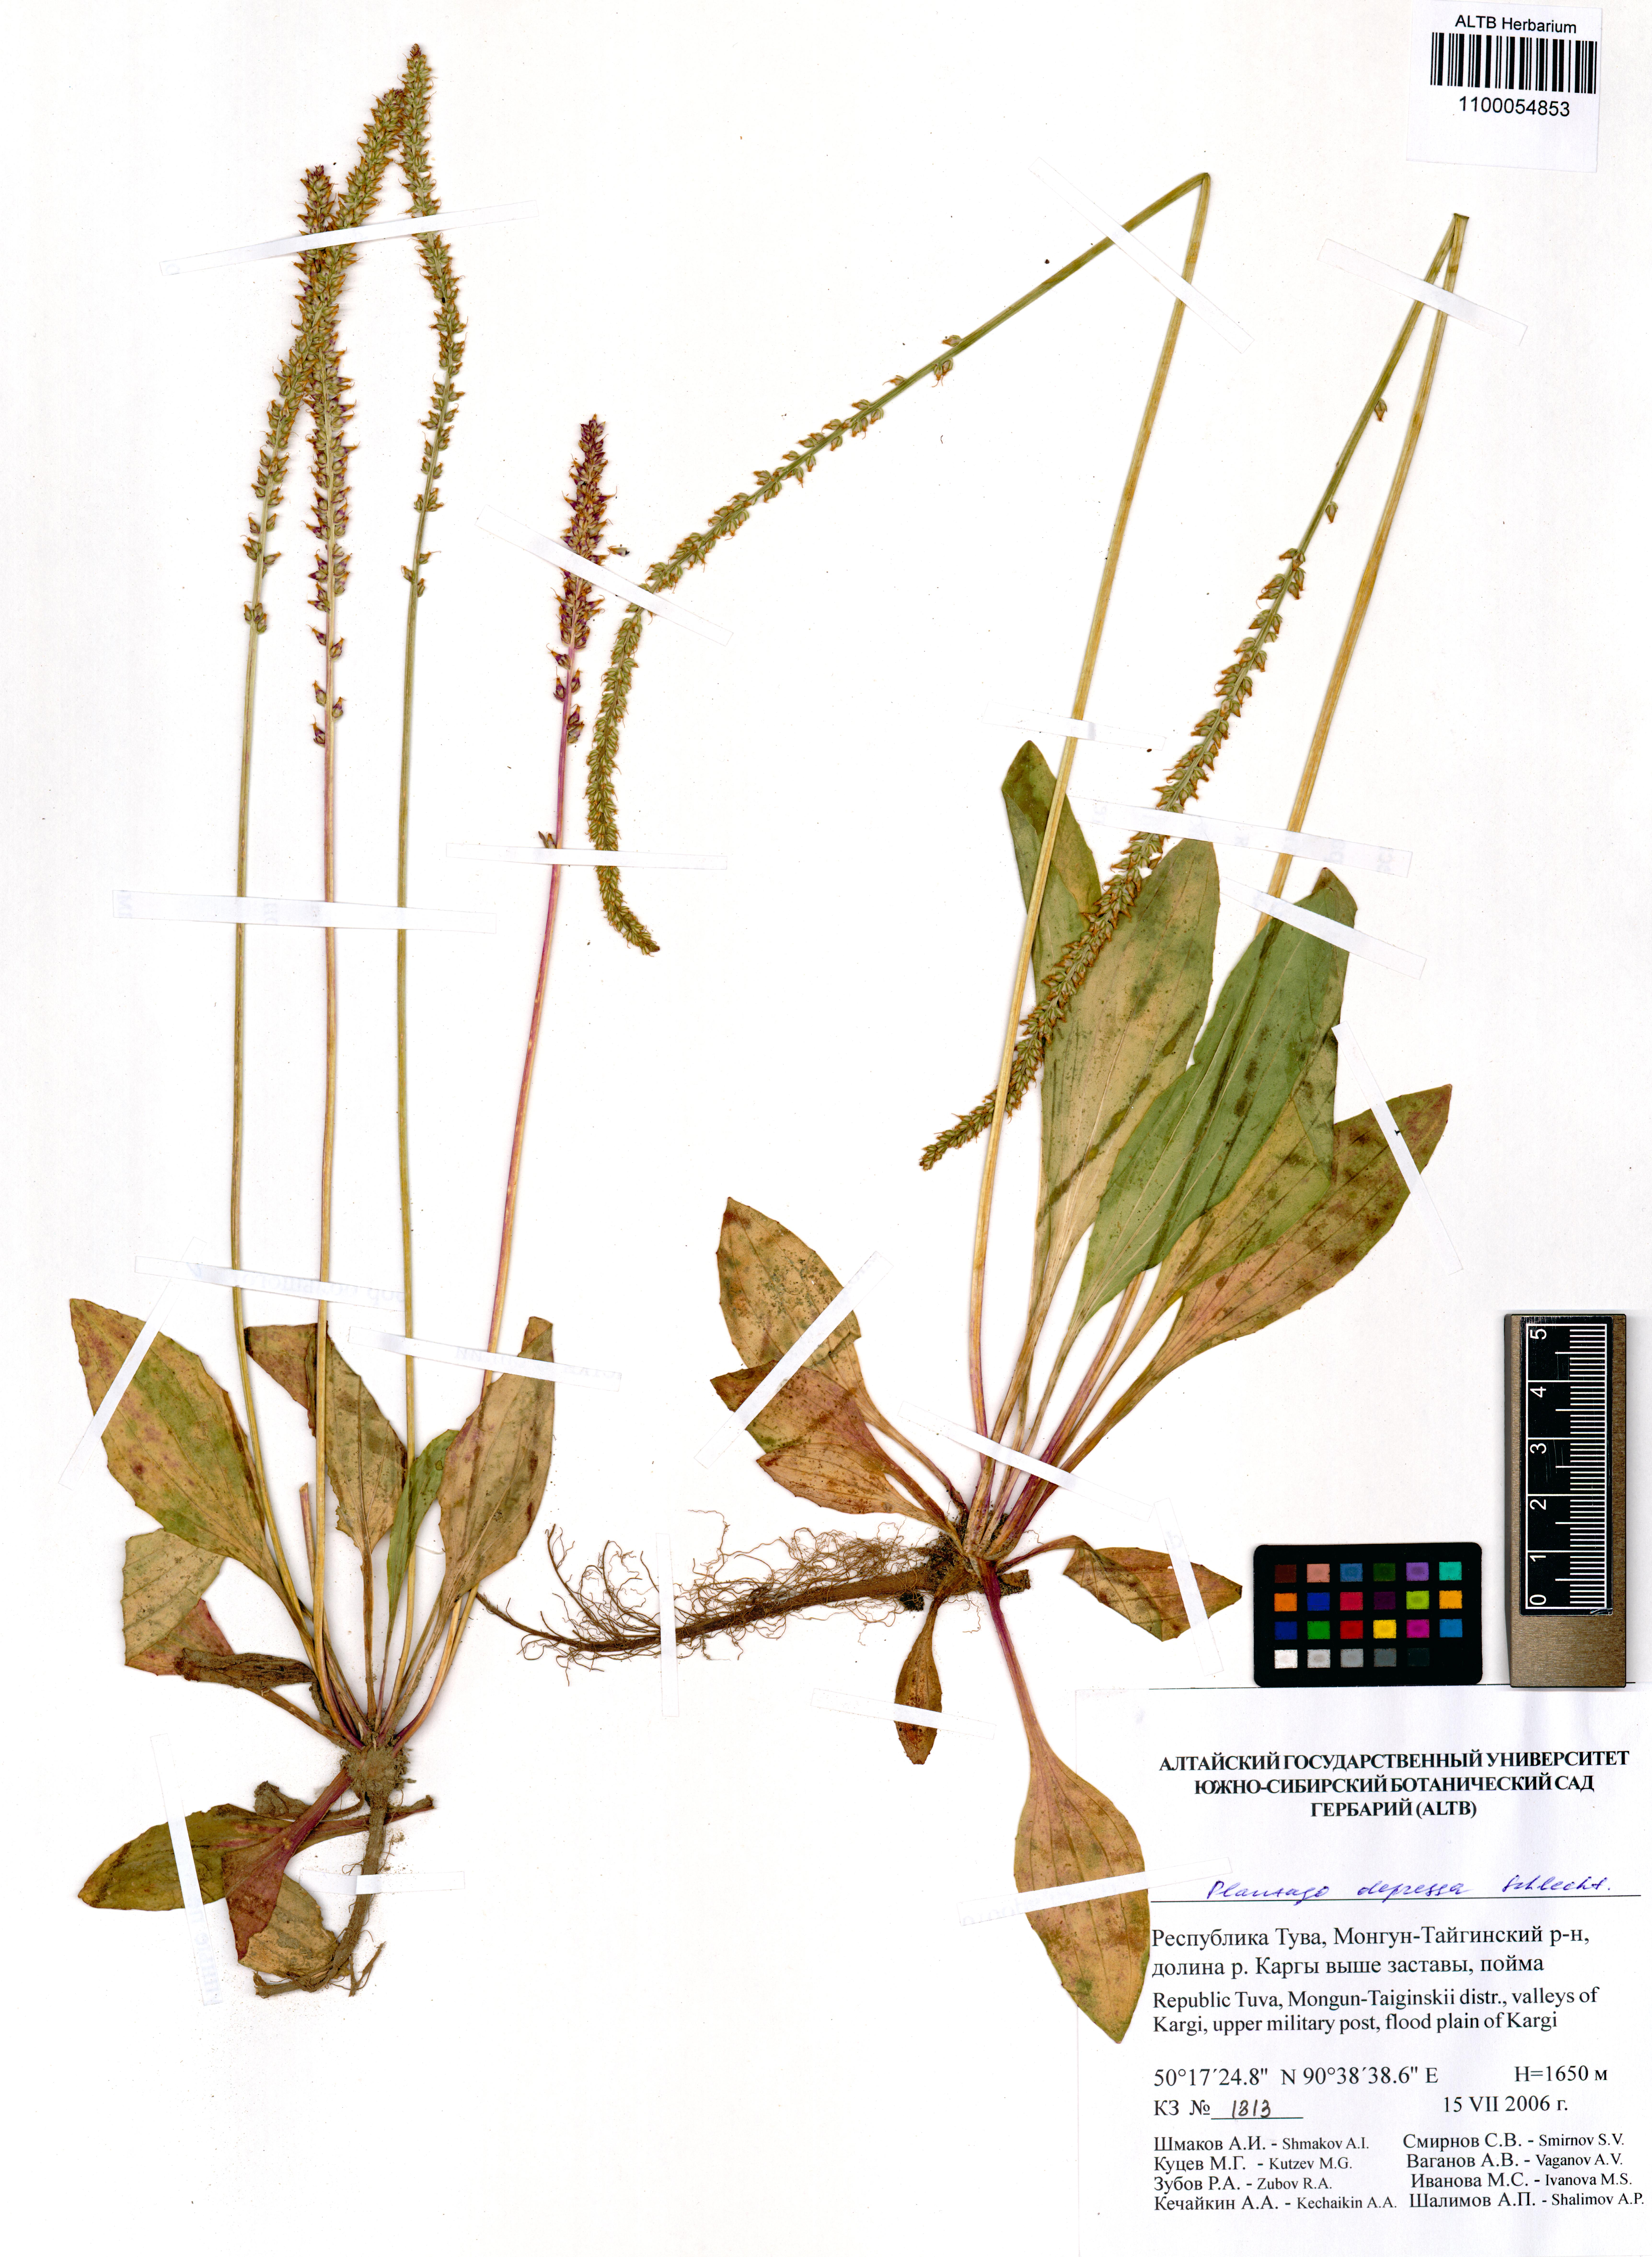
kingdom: Plantae
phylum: Tracheophyta
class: Magnoliopsida
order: Lamiales
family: Plantaginaceae
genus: Plantago
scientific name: Plantago depressa
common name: Depressed plantain
